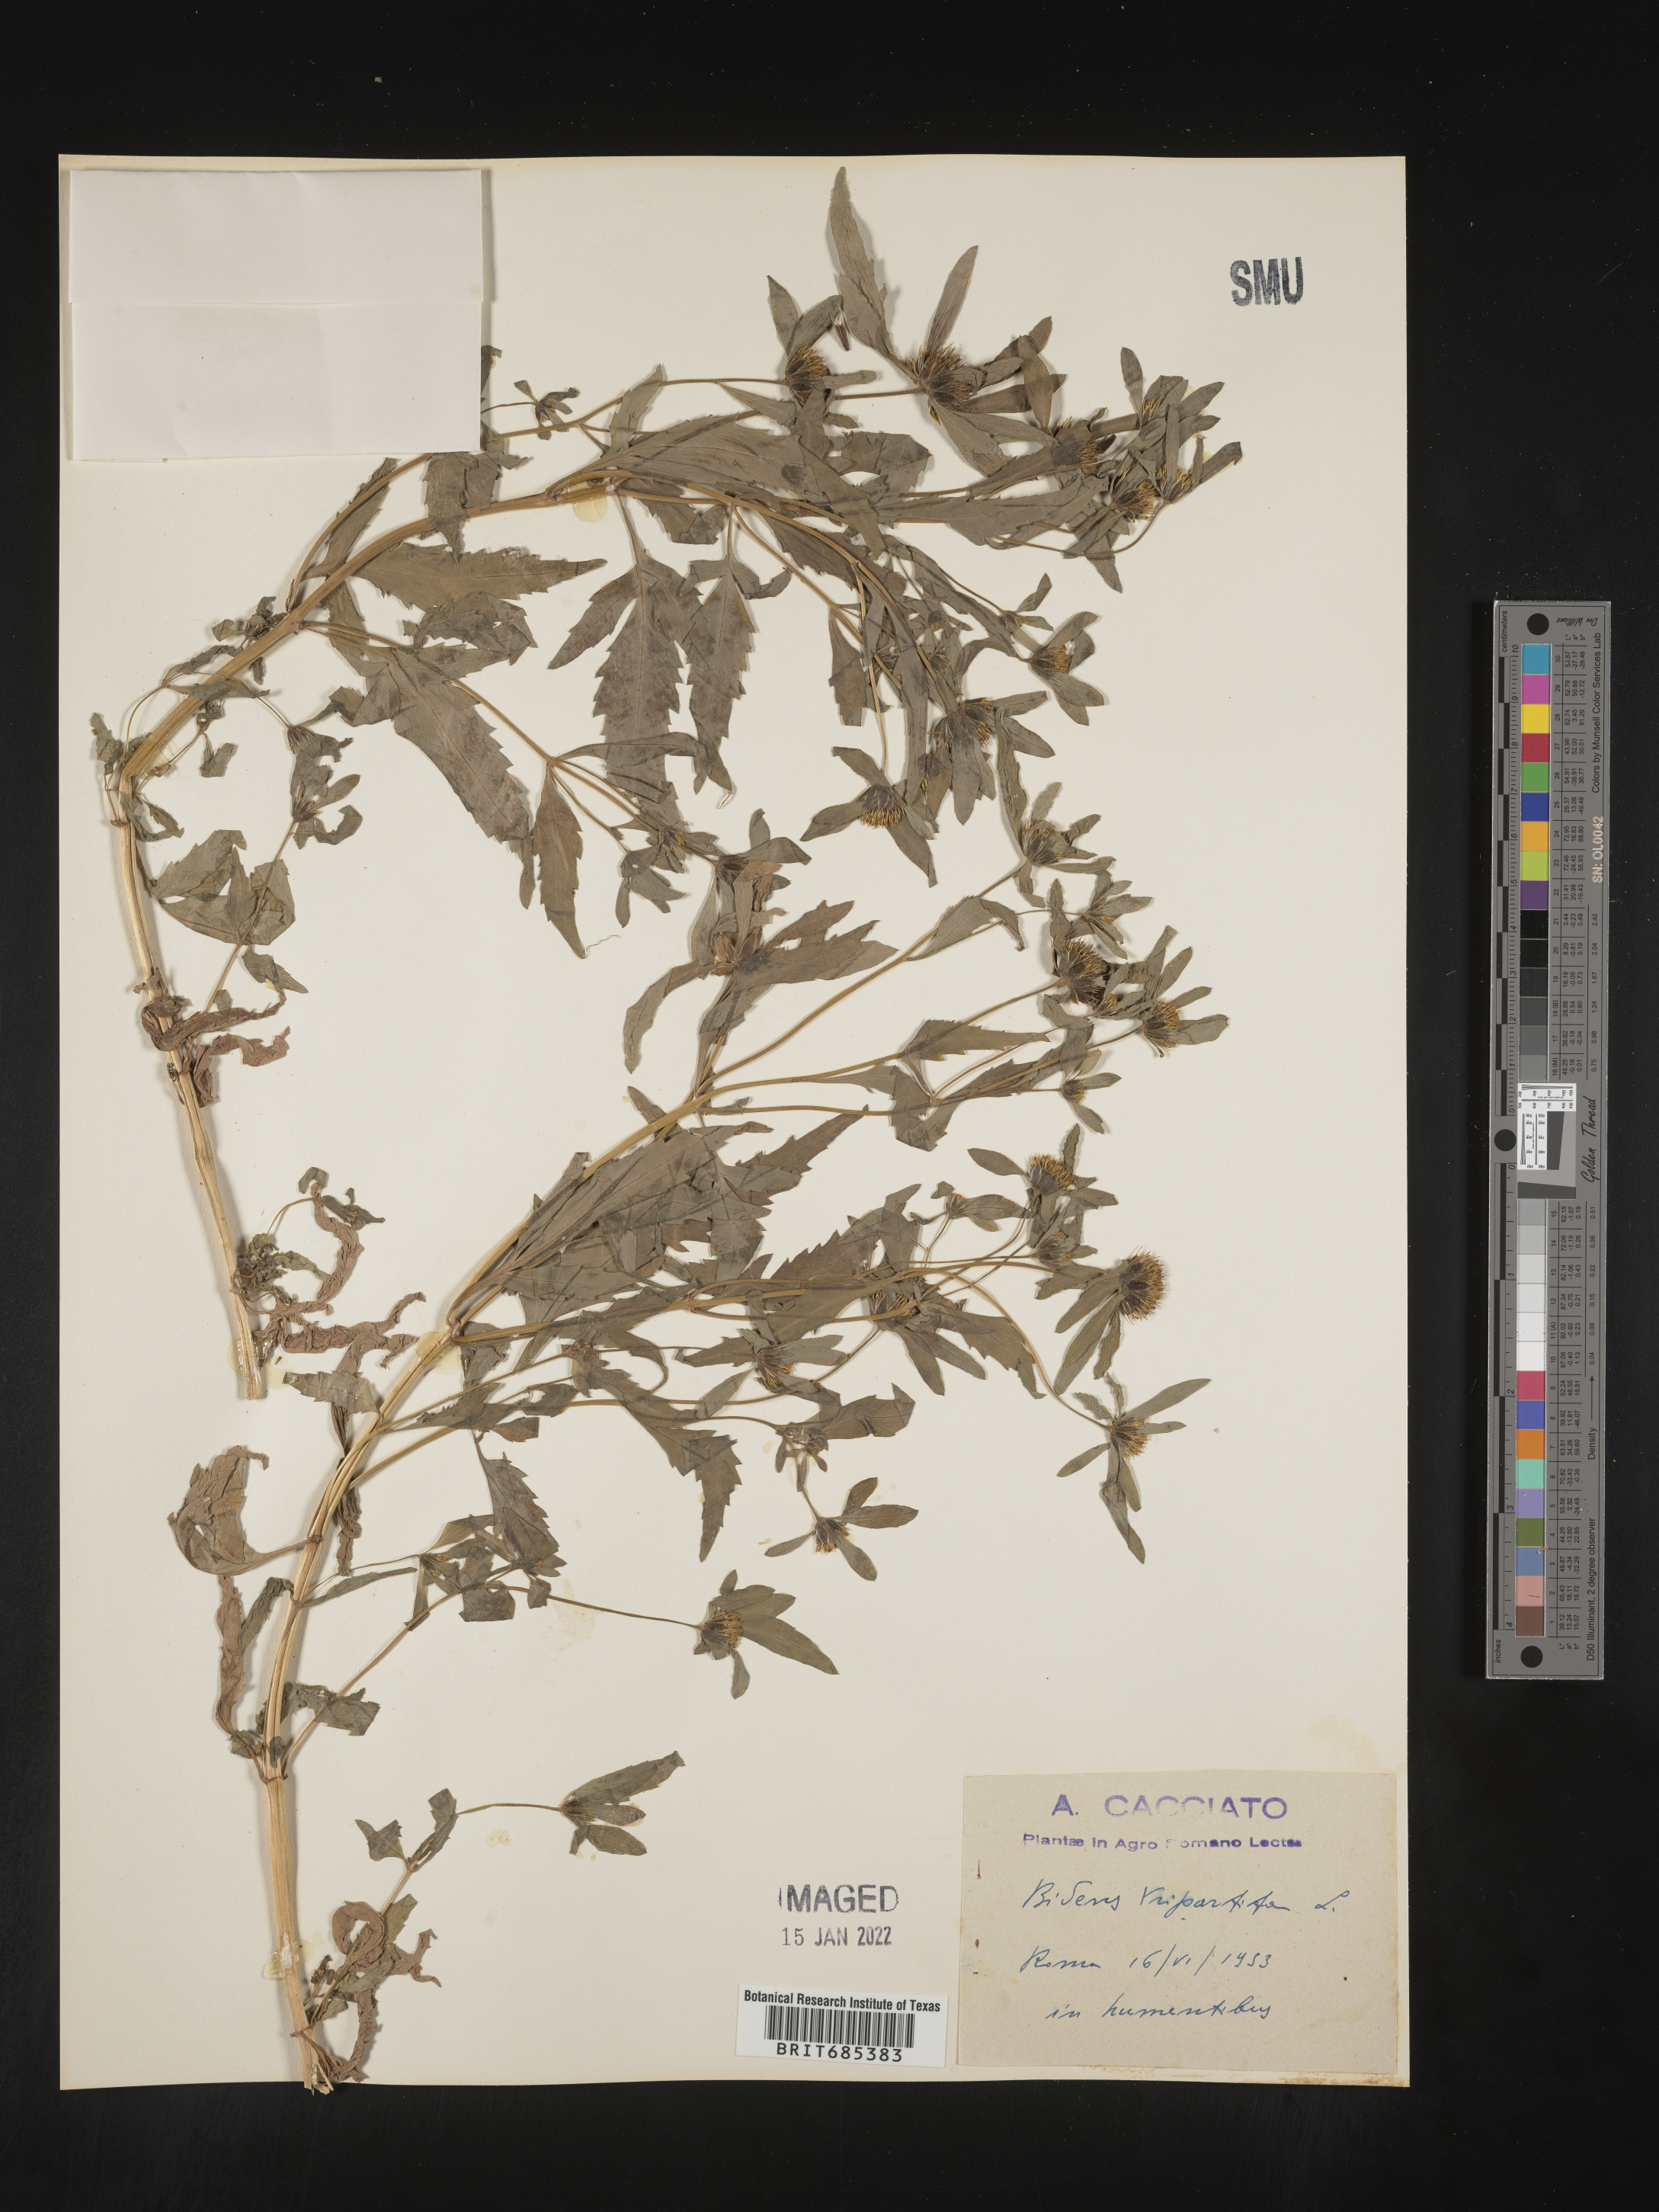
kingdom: Plantae
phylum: Tracheophyta
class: Magnoliopsida
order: Asterales
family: Asteraceae
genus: Bidens
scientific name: Bidens
